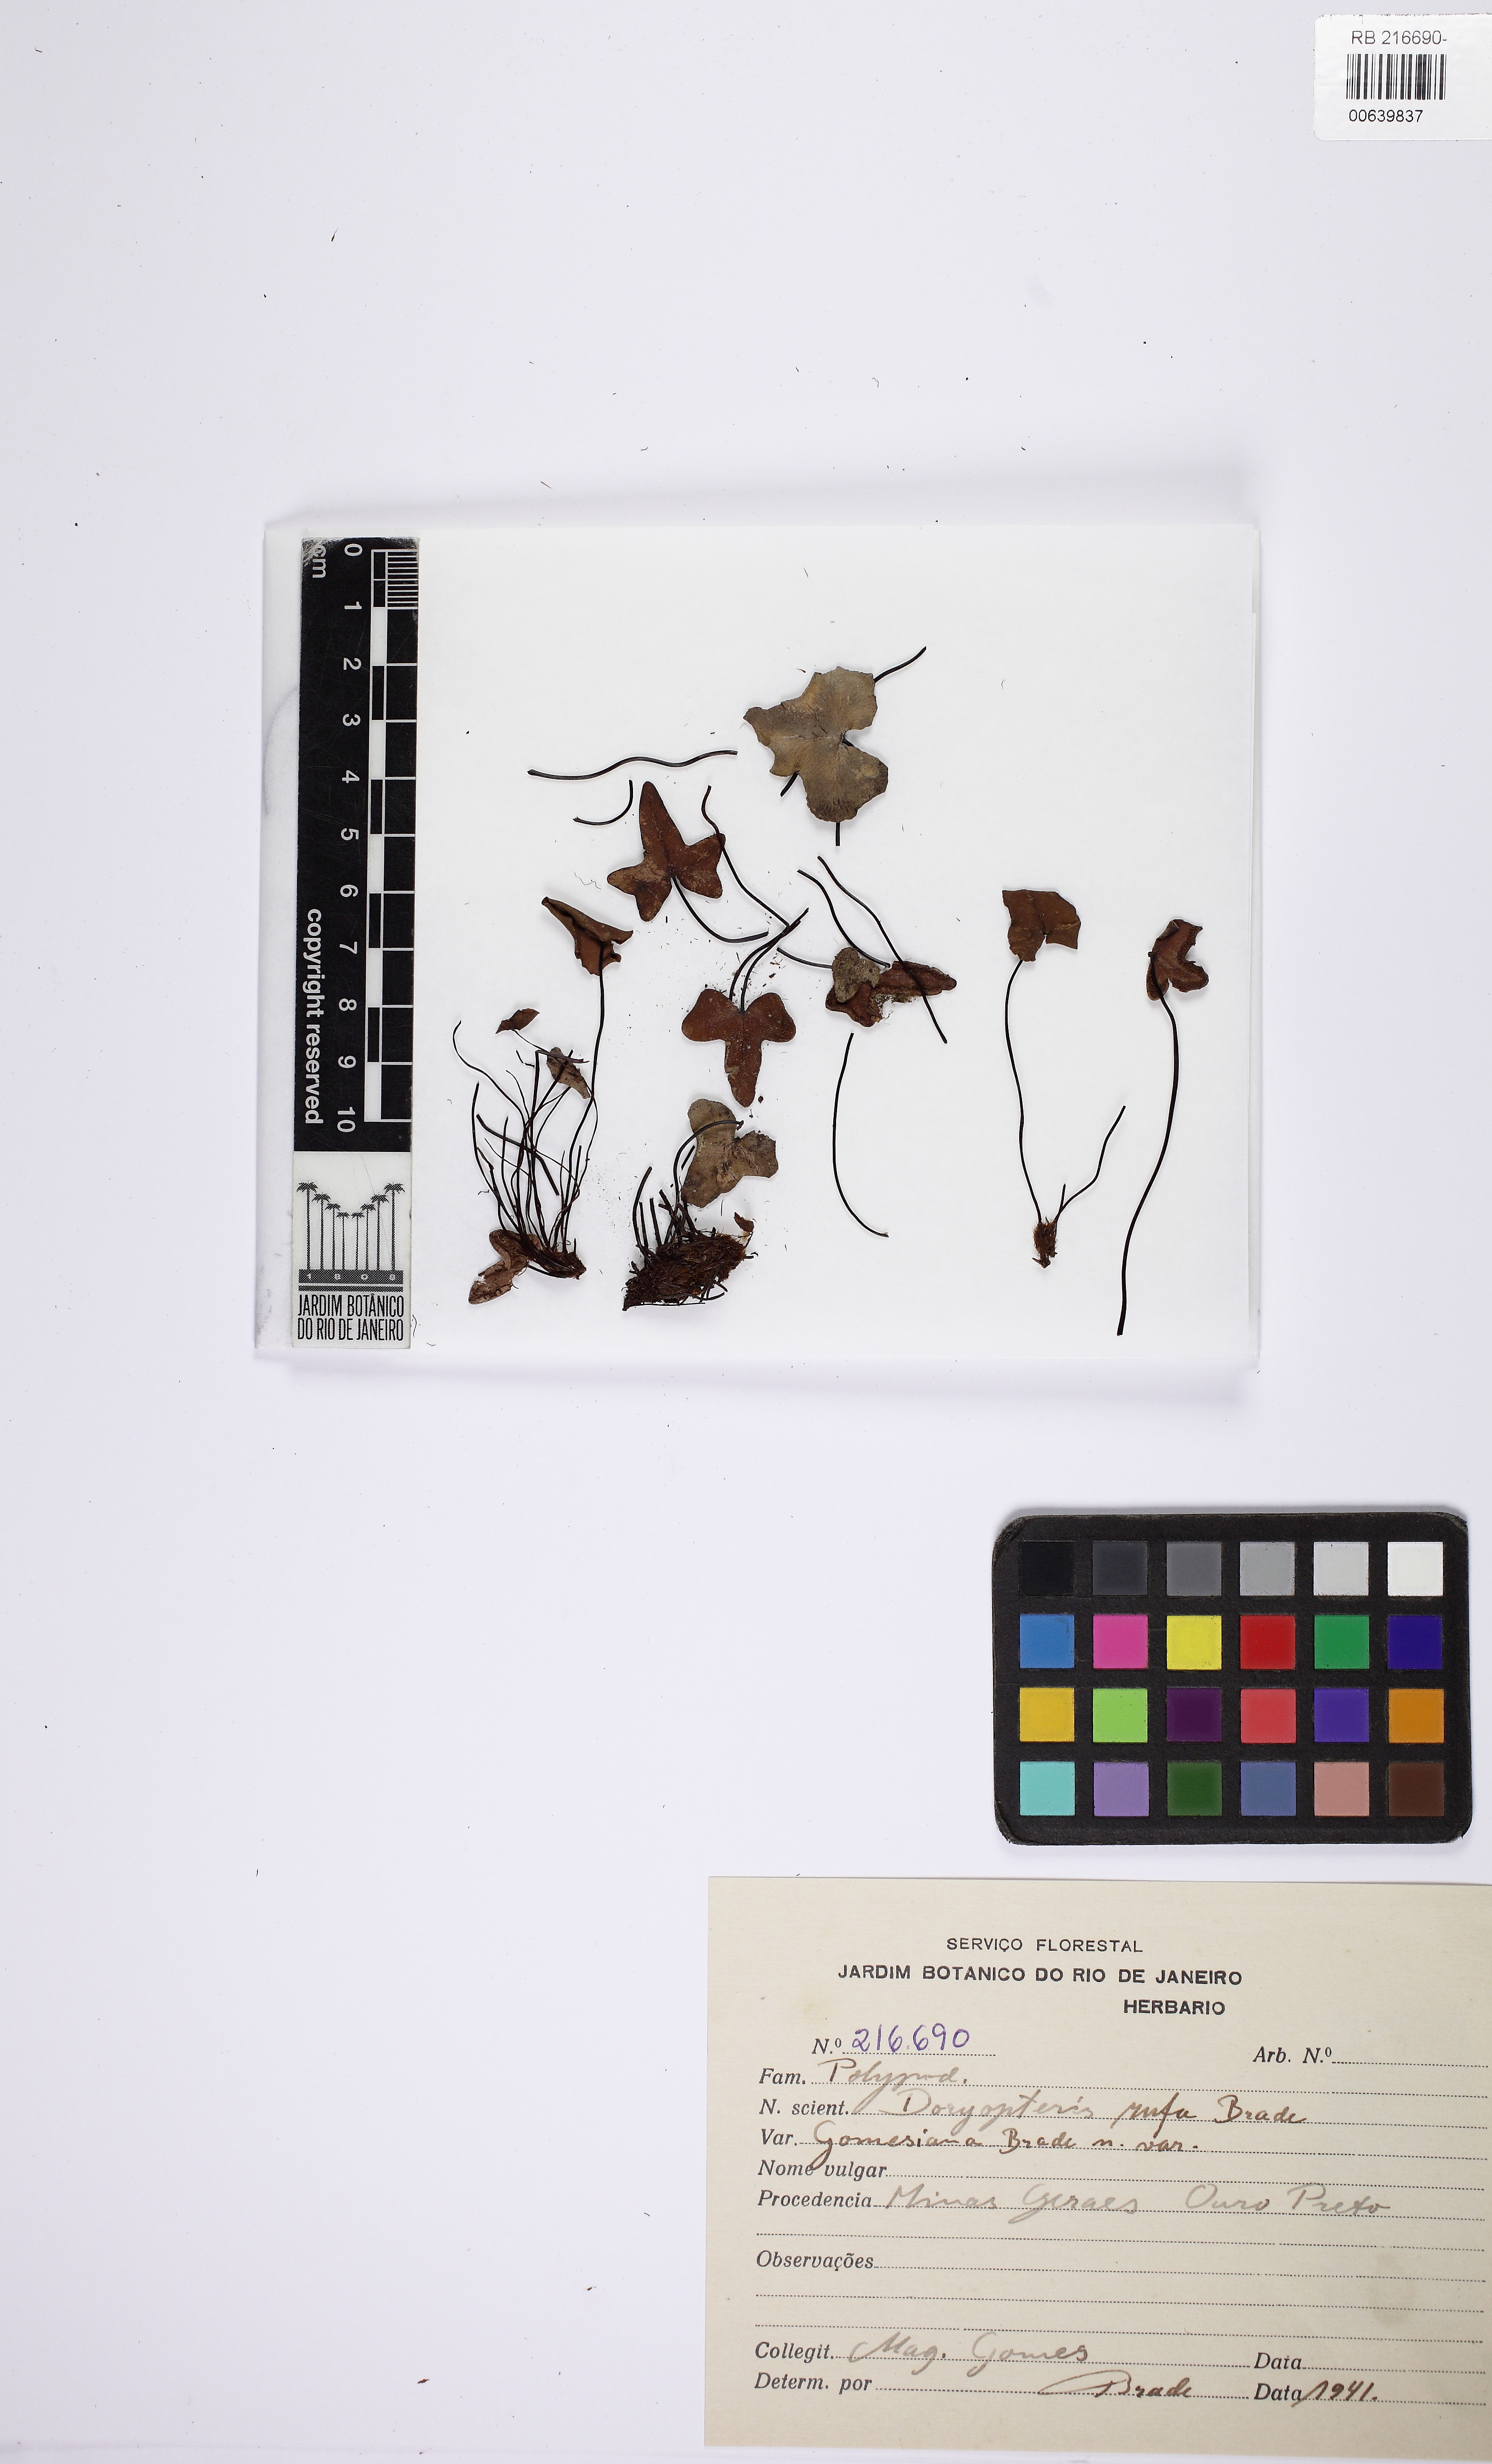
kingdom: Plantae
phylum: Tracheophyta
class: Polypodiopsida
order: Polypodiales
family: Pteridaceae
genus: Lytoneuron
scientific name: Lytoneuron rufum
